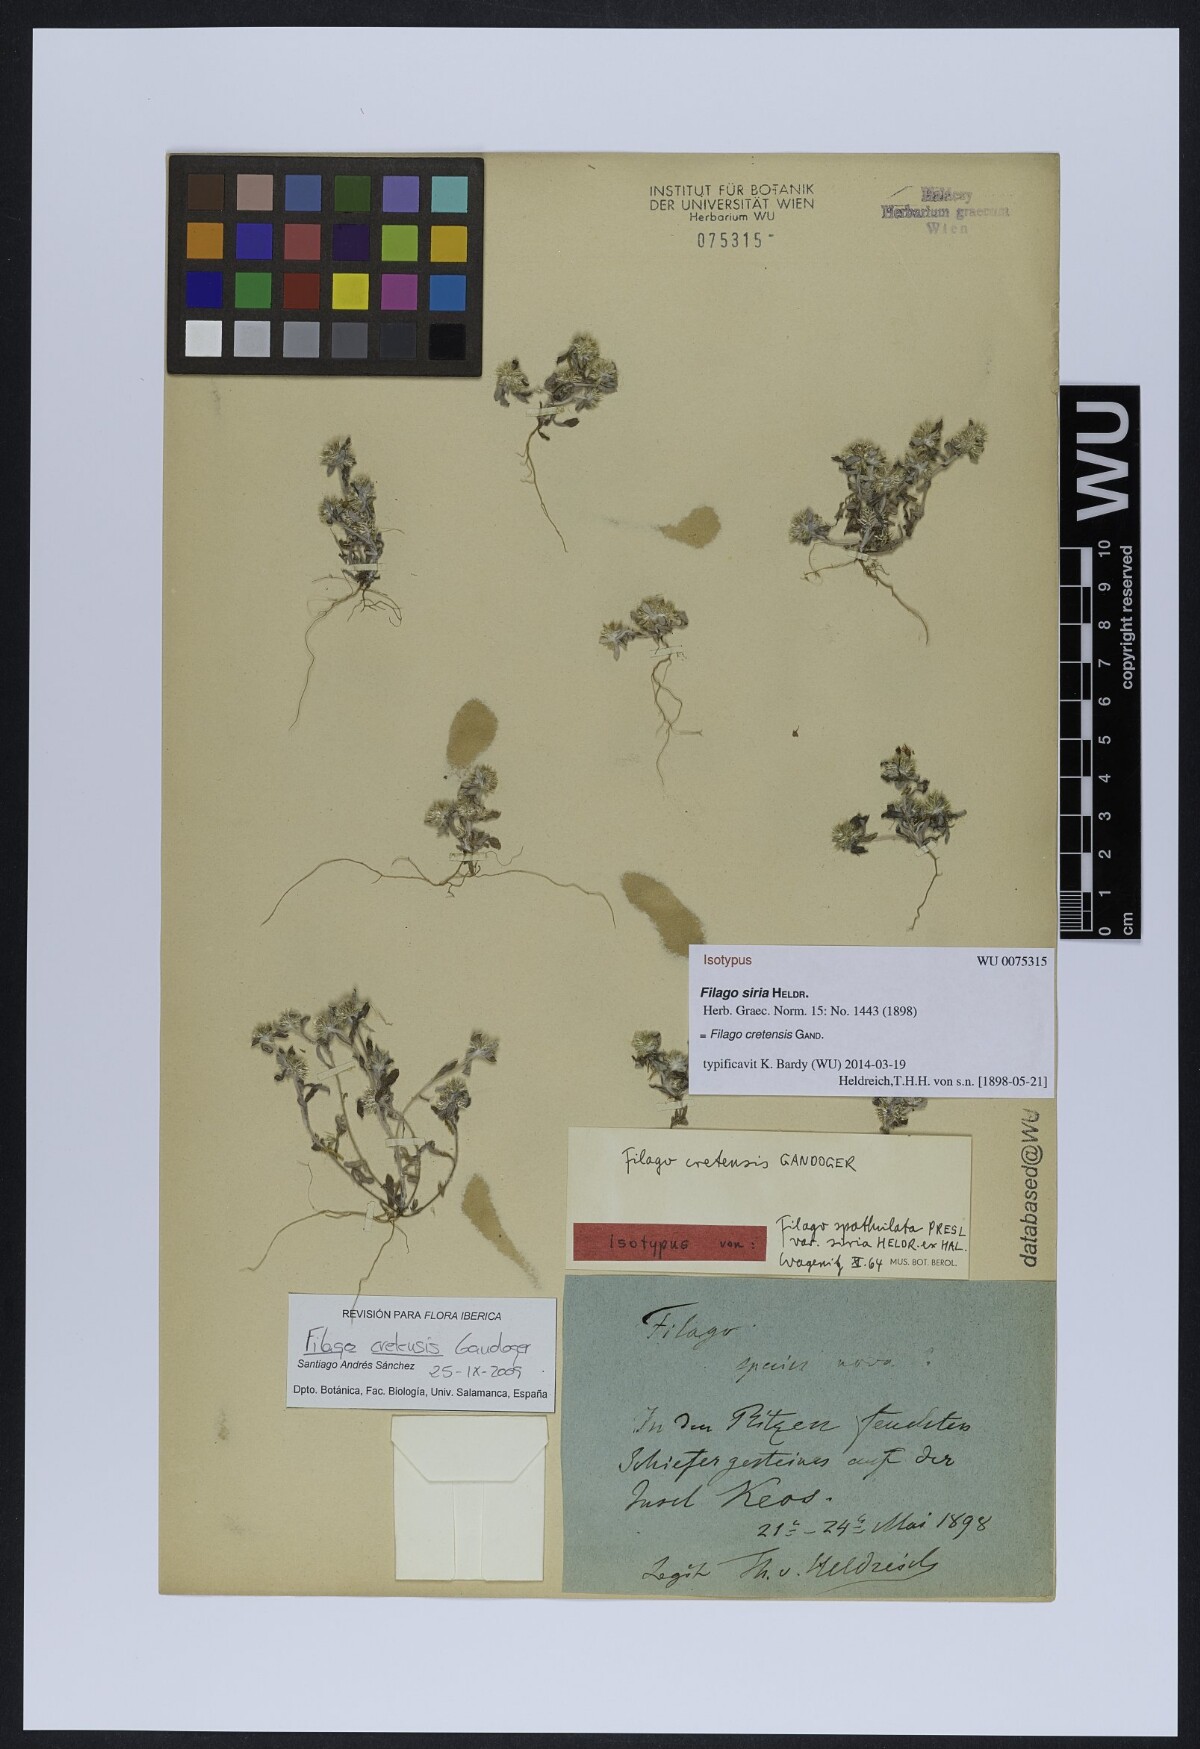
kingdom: Plantae
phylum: Tracheophyta
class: Magnoliopsida
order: Asterales
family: Asteraceae
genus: Filago
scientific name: Filago
